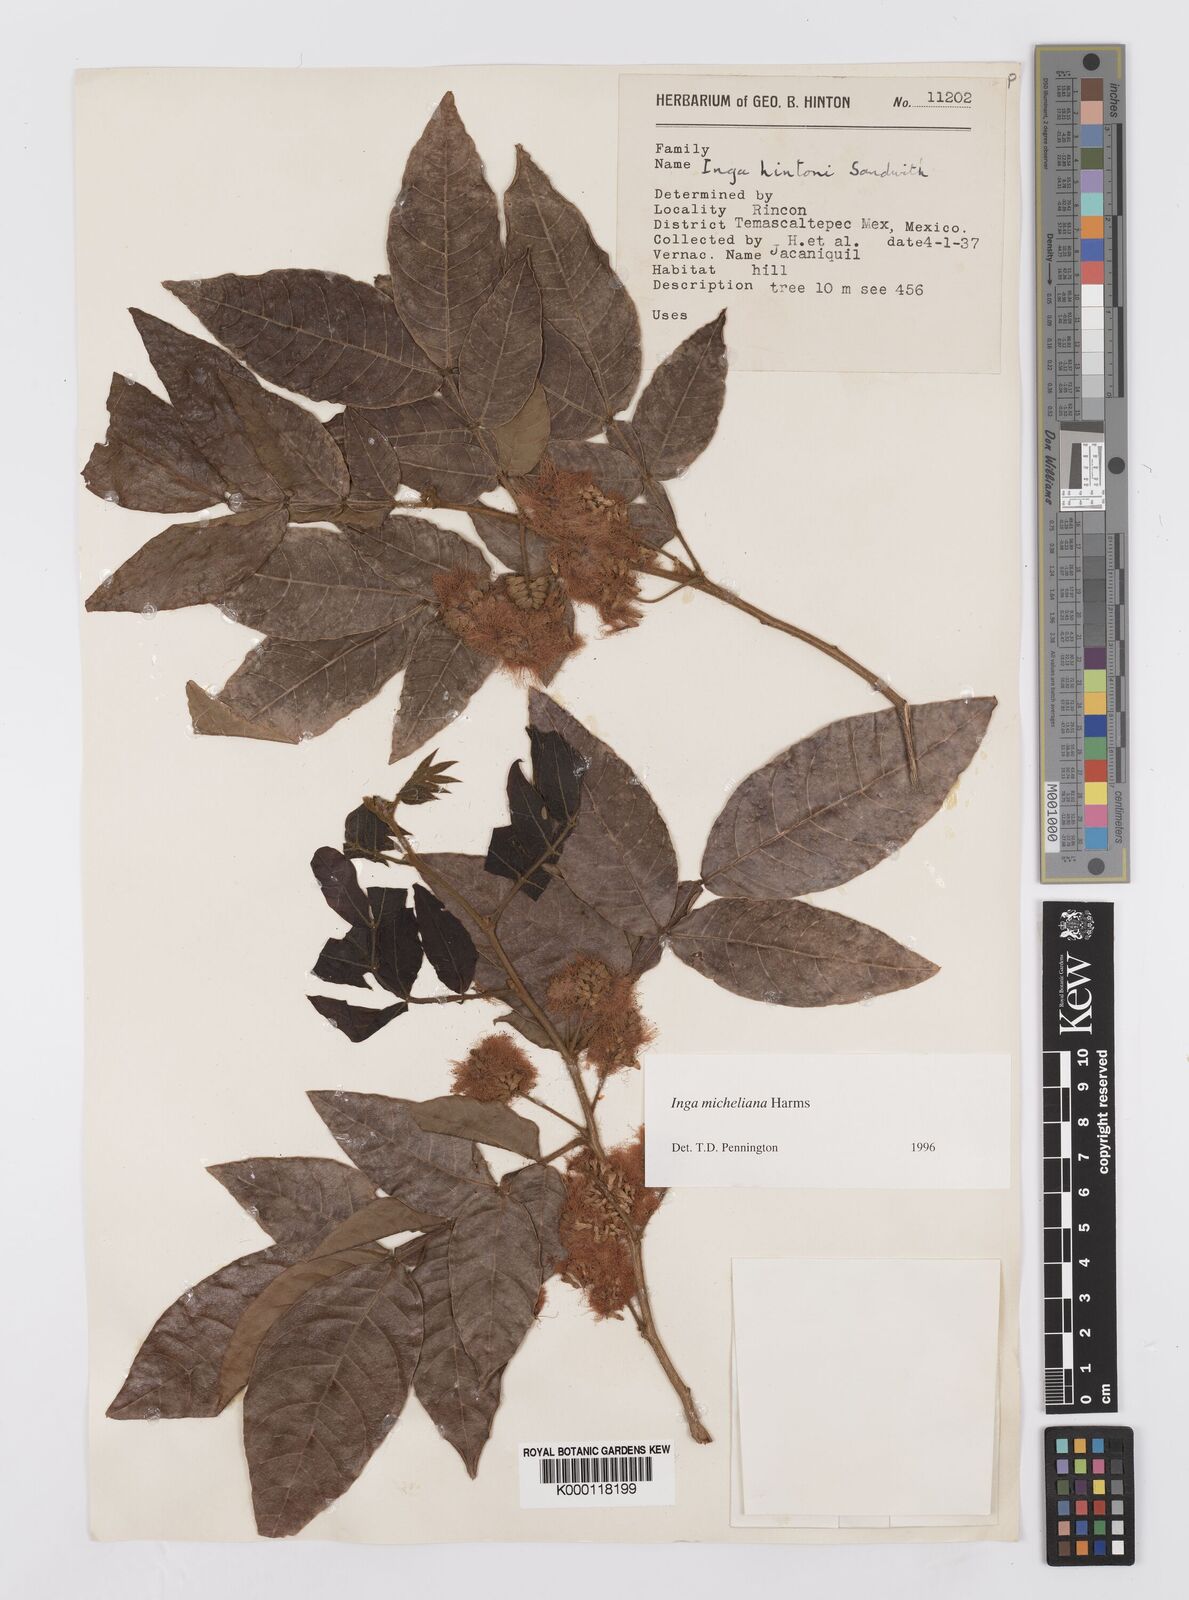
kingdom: Plantae
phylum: Tracheophyta
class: Magnoliopsida
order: Fabales
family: Fabaceae
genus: Inga
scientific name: Inga flexuosa
